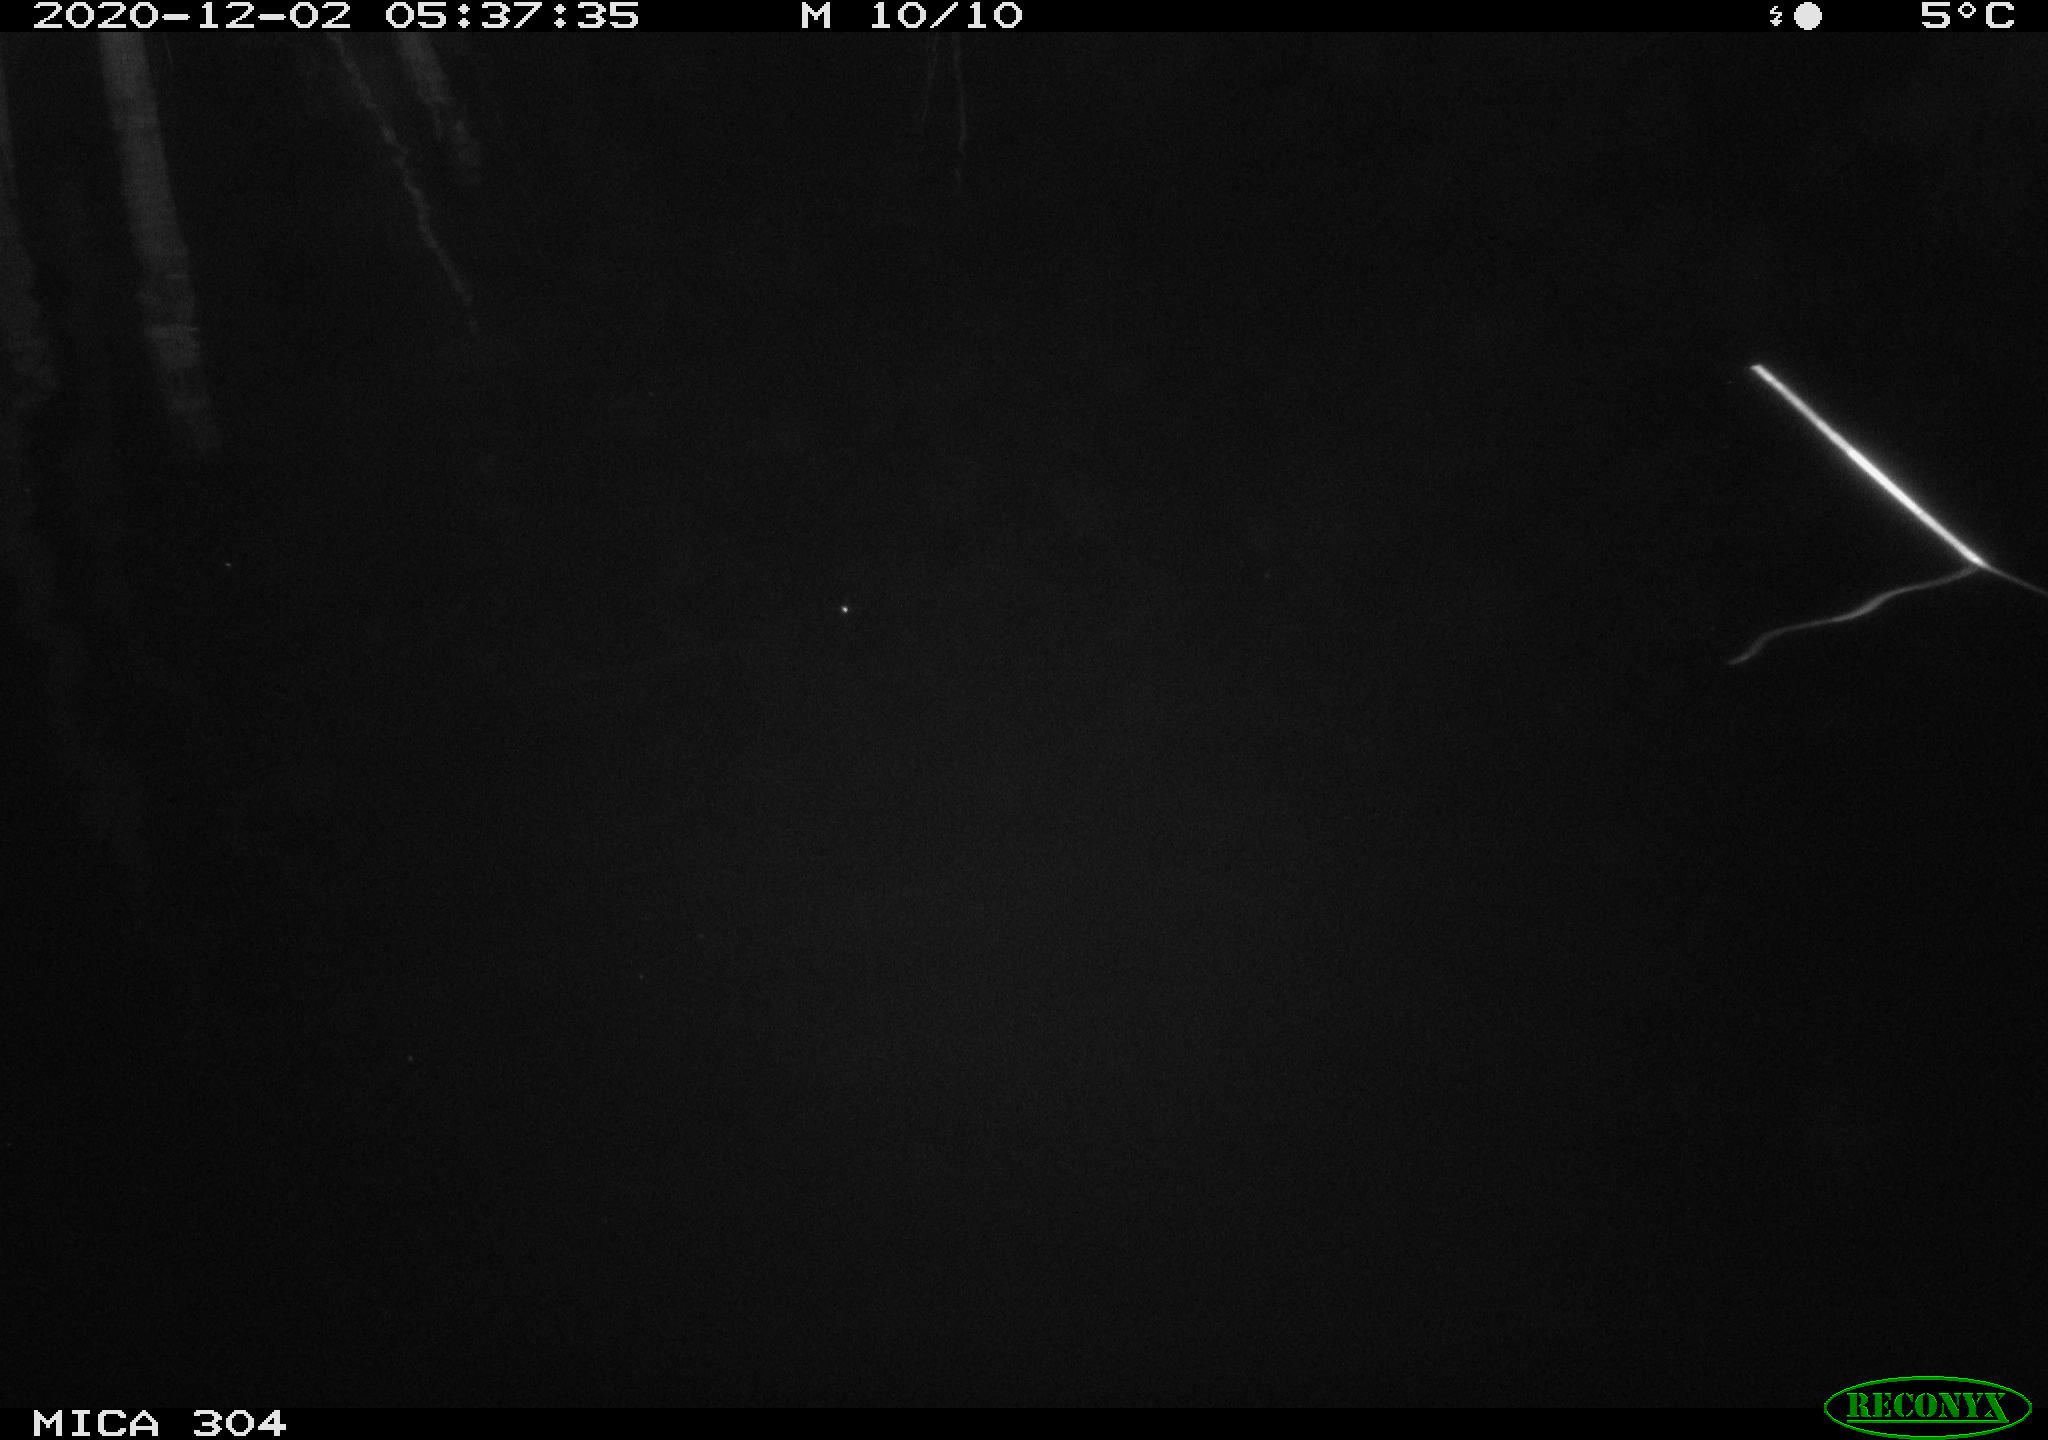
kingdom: Animalia
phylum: Chordata
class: Mammalia
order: Rodentia
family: Muridae
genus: Rattus
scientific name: Rattus norvegicus
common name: Brown rat
